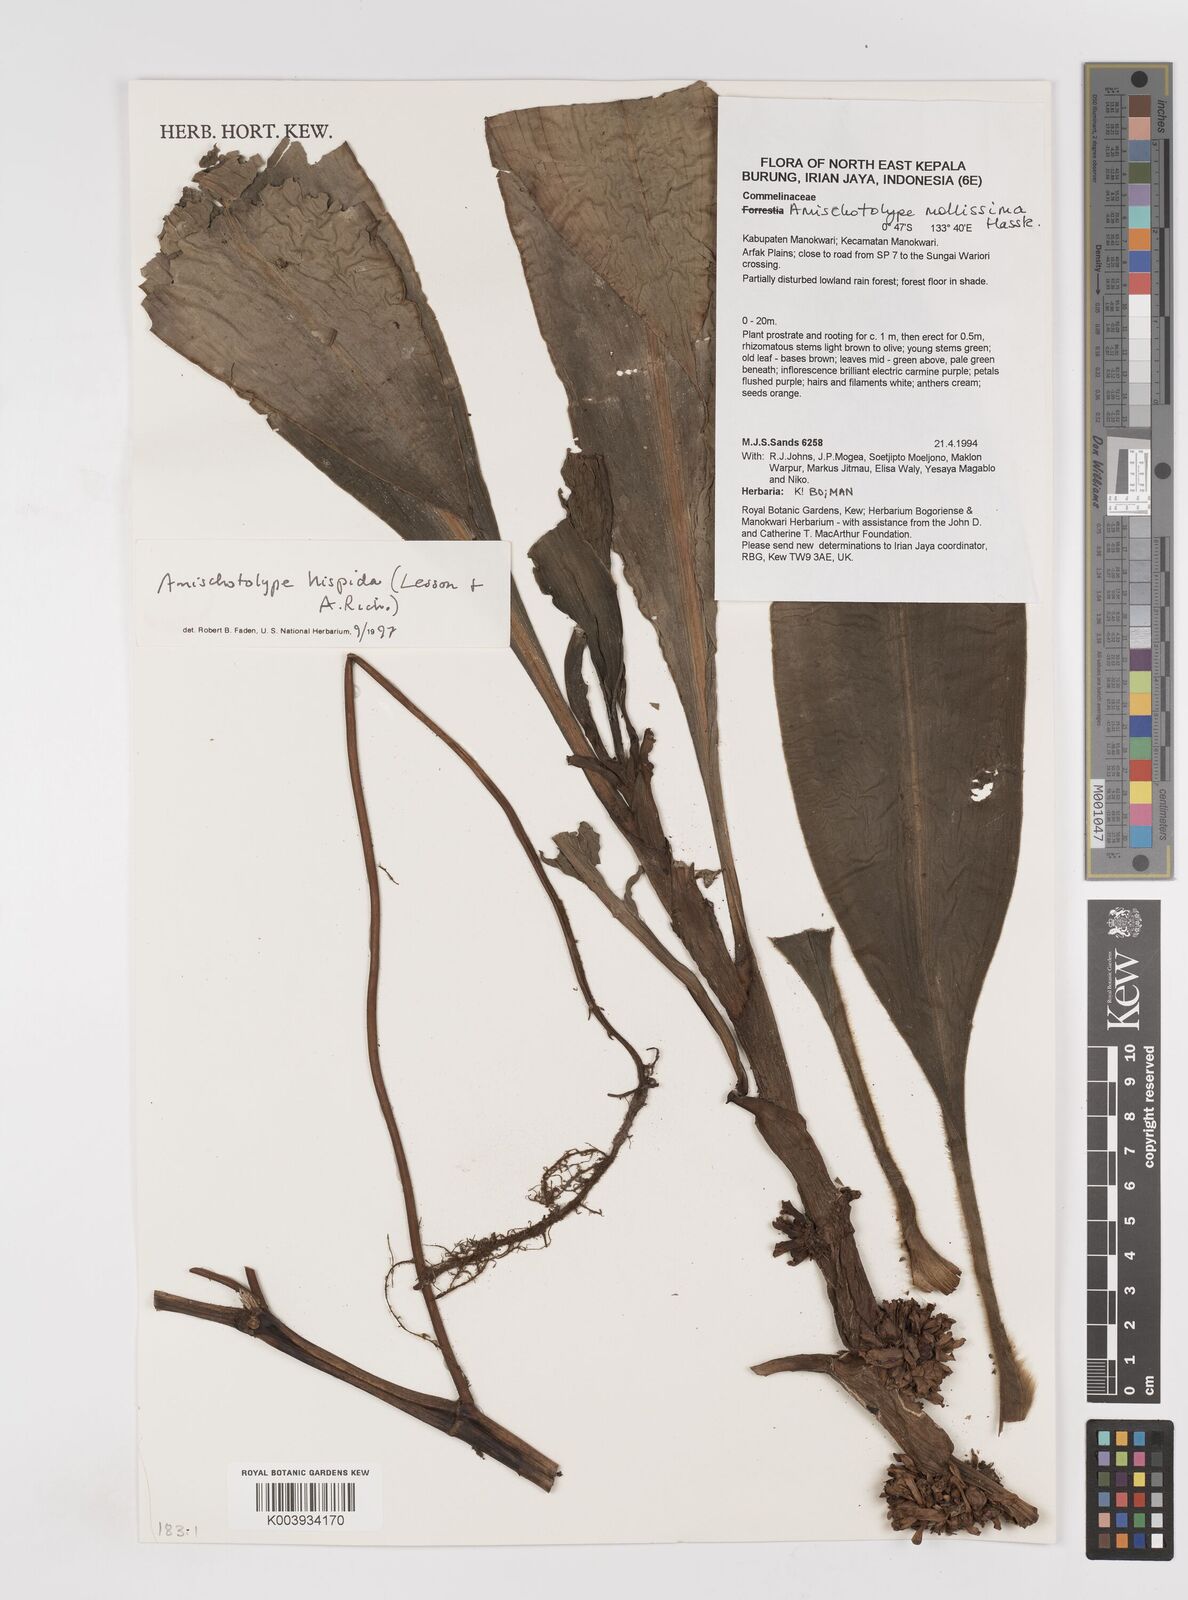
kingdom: Plantae
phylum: Tracheophyta
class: Liliopsida
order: Commelinales
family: Commelinaceae
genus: Amischotolype
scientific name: Amischotolype hispida
